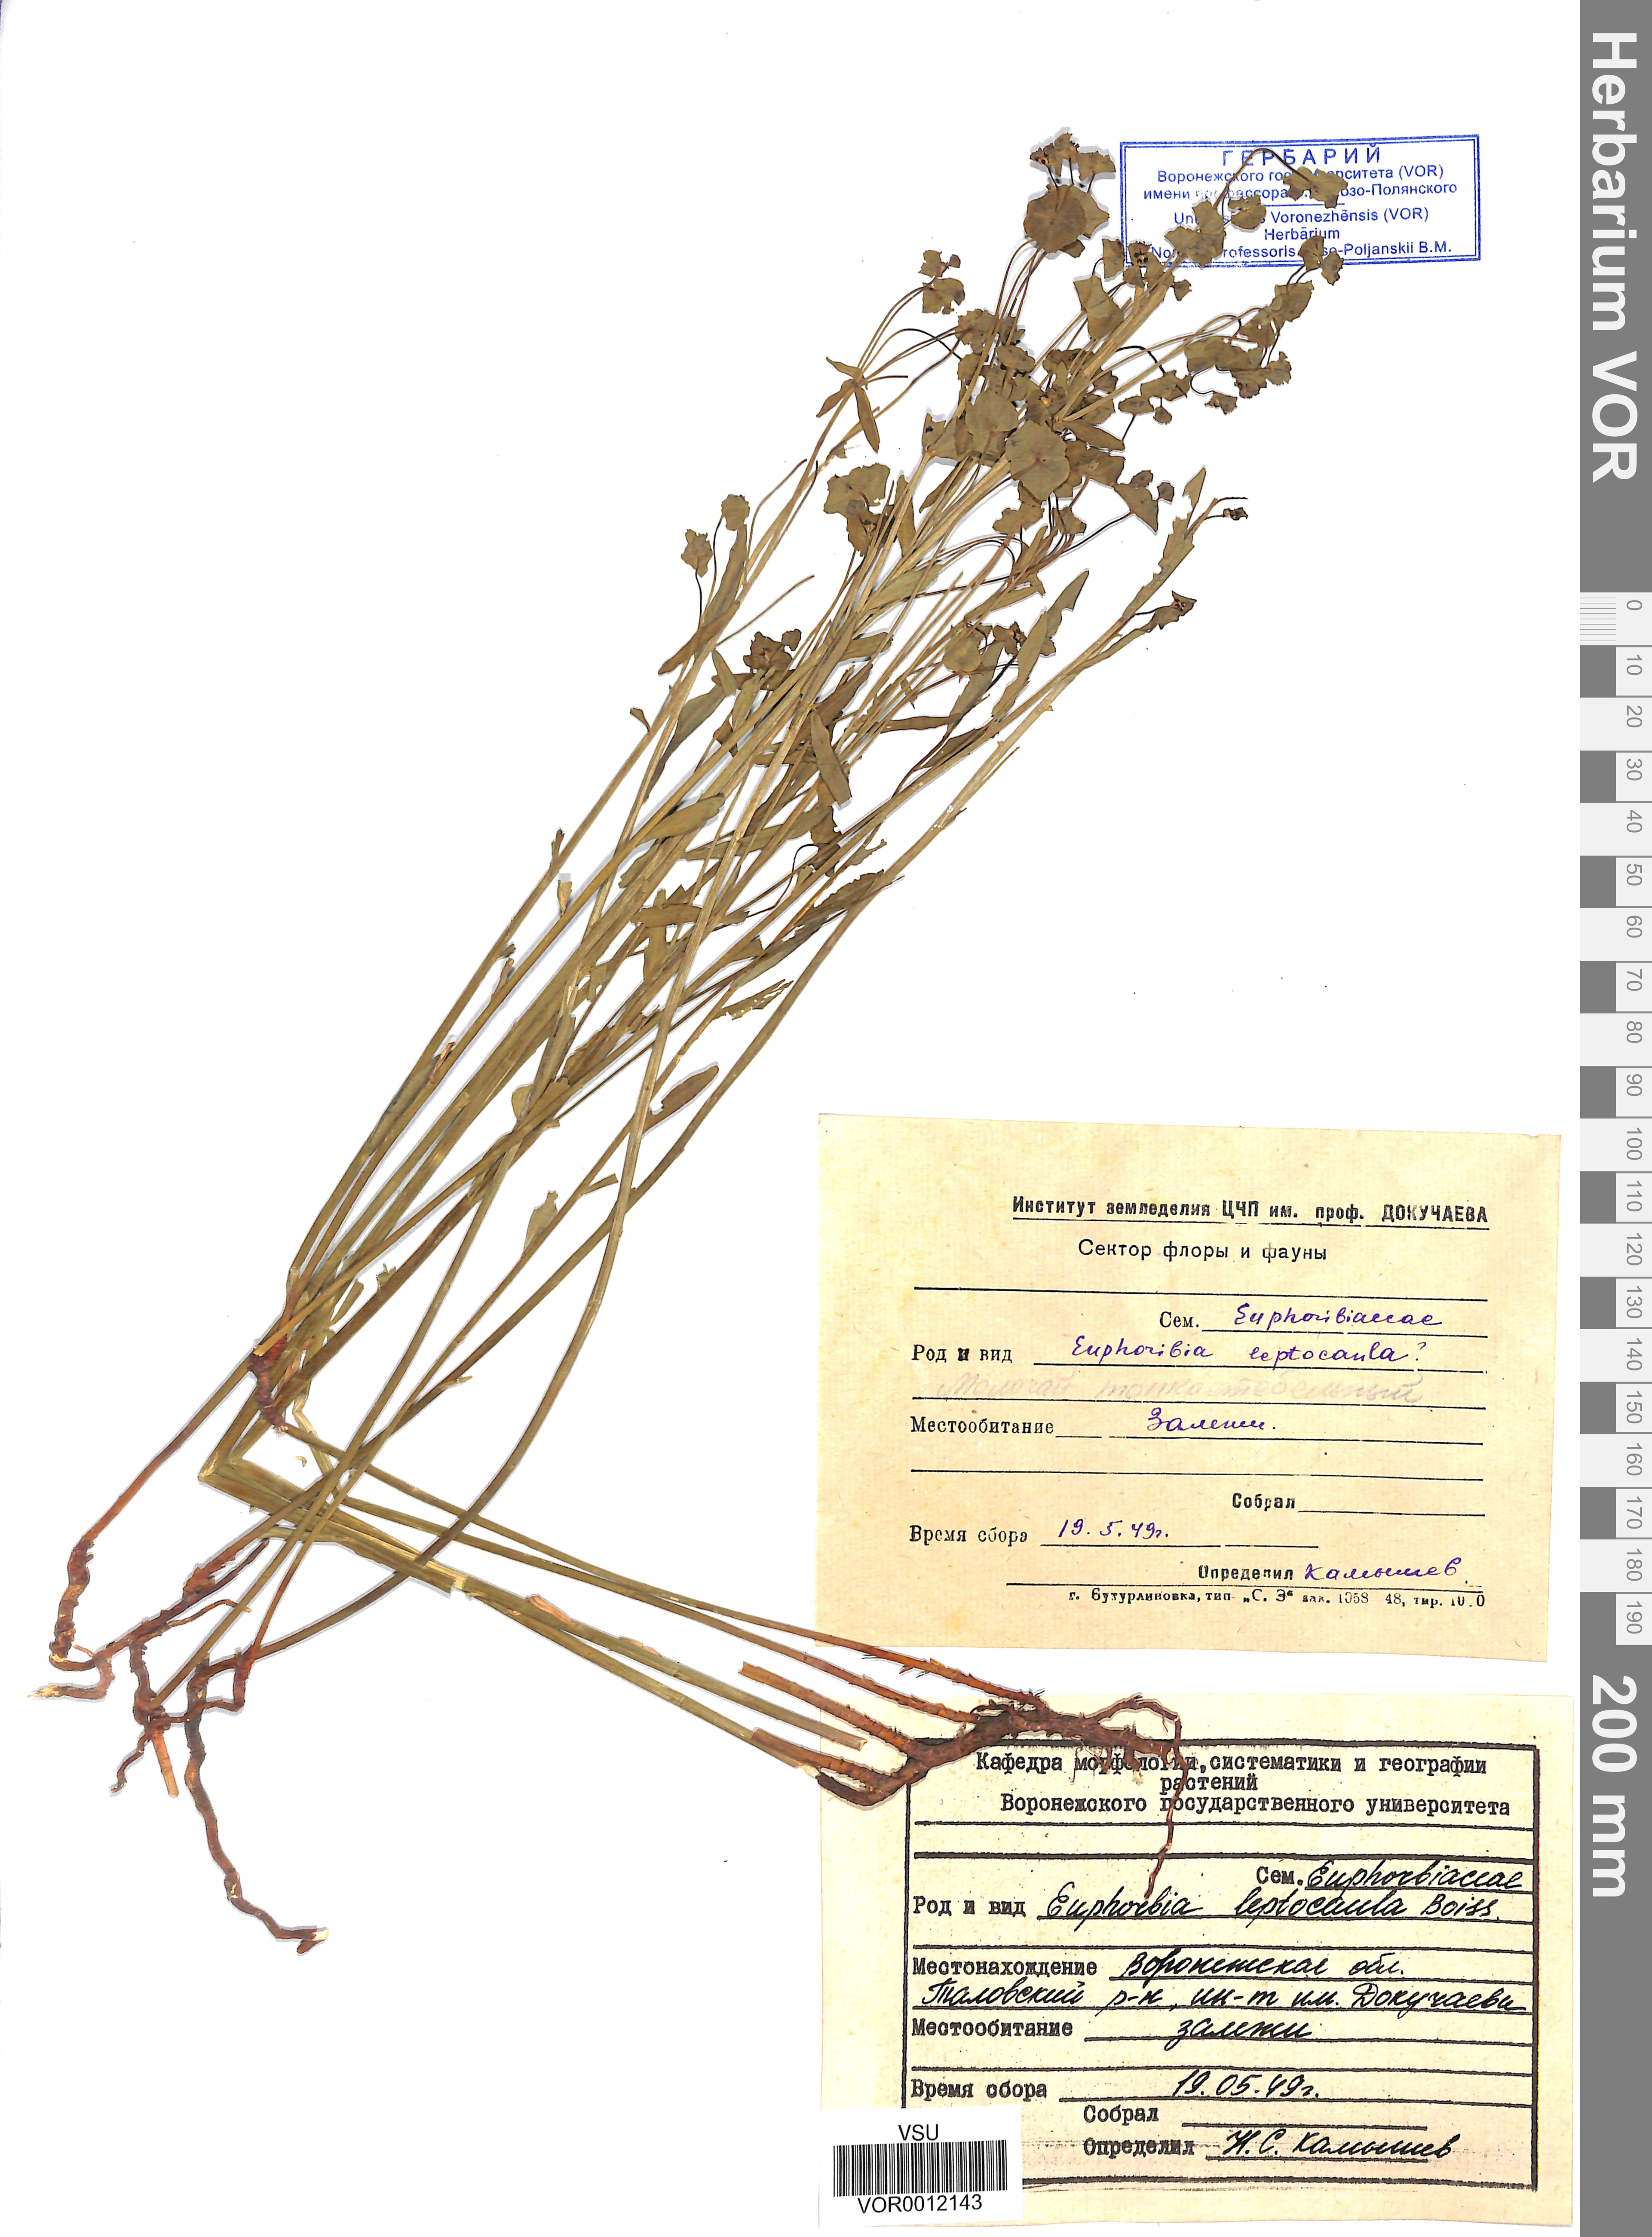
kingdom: Plantae
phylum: Tracheophyta
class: Magnoliopsida
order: Malpighiales
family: Euphorbiaceae
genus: Euphorbia
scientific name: Euphorbia leptocaula
